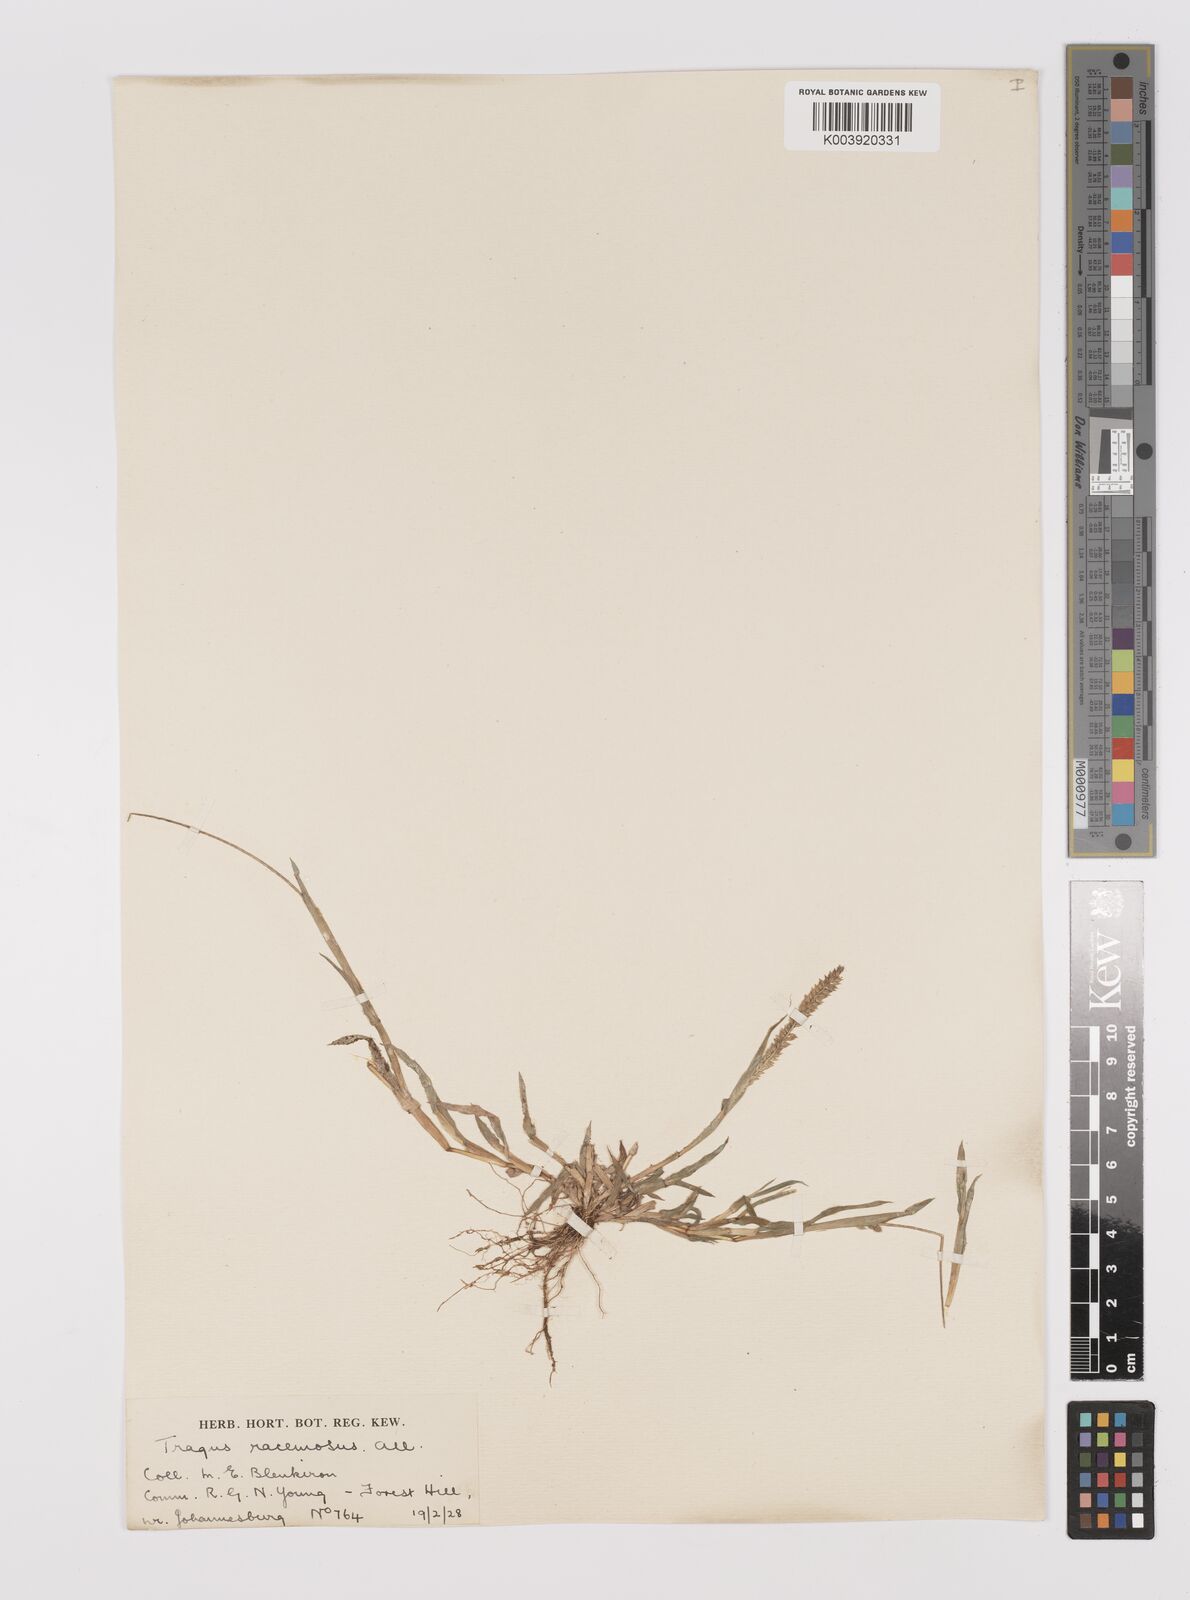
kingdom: Plantae
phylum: Tracheophyta
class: Liliopsida
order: Poales
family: Poaceae
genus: Tragus
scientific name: Tragus berteronianus
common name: African bur-grass
